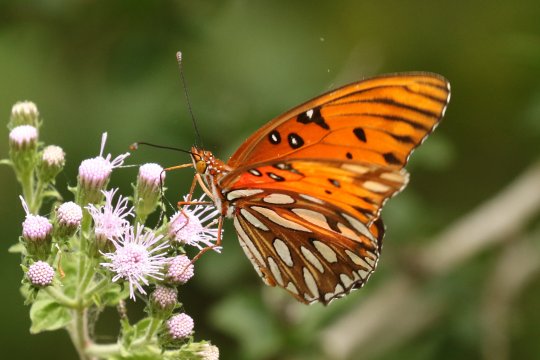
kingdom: Animalia
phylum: Arthropoda
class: Insecta
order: Lepidoptera
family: Nymphalidae
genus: Dione
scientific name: Dione vanillae
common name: Gulf Fritillary
